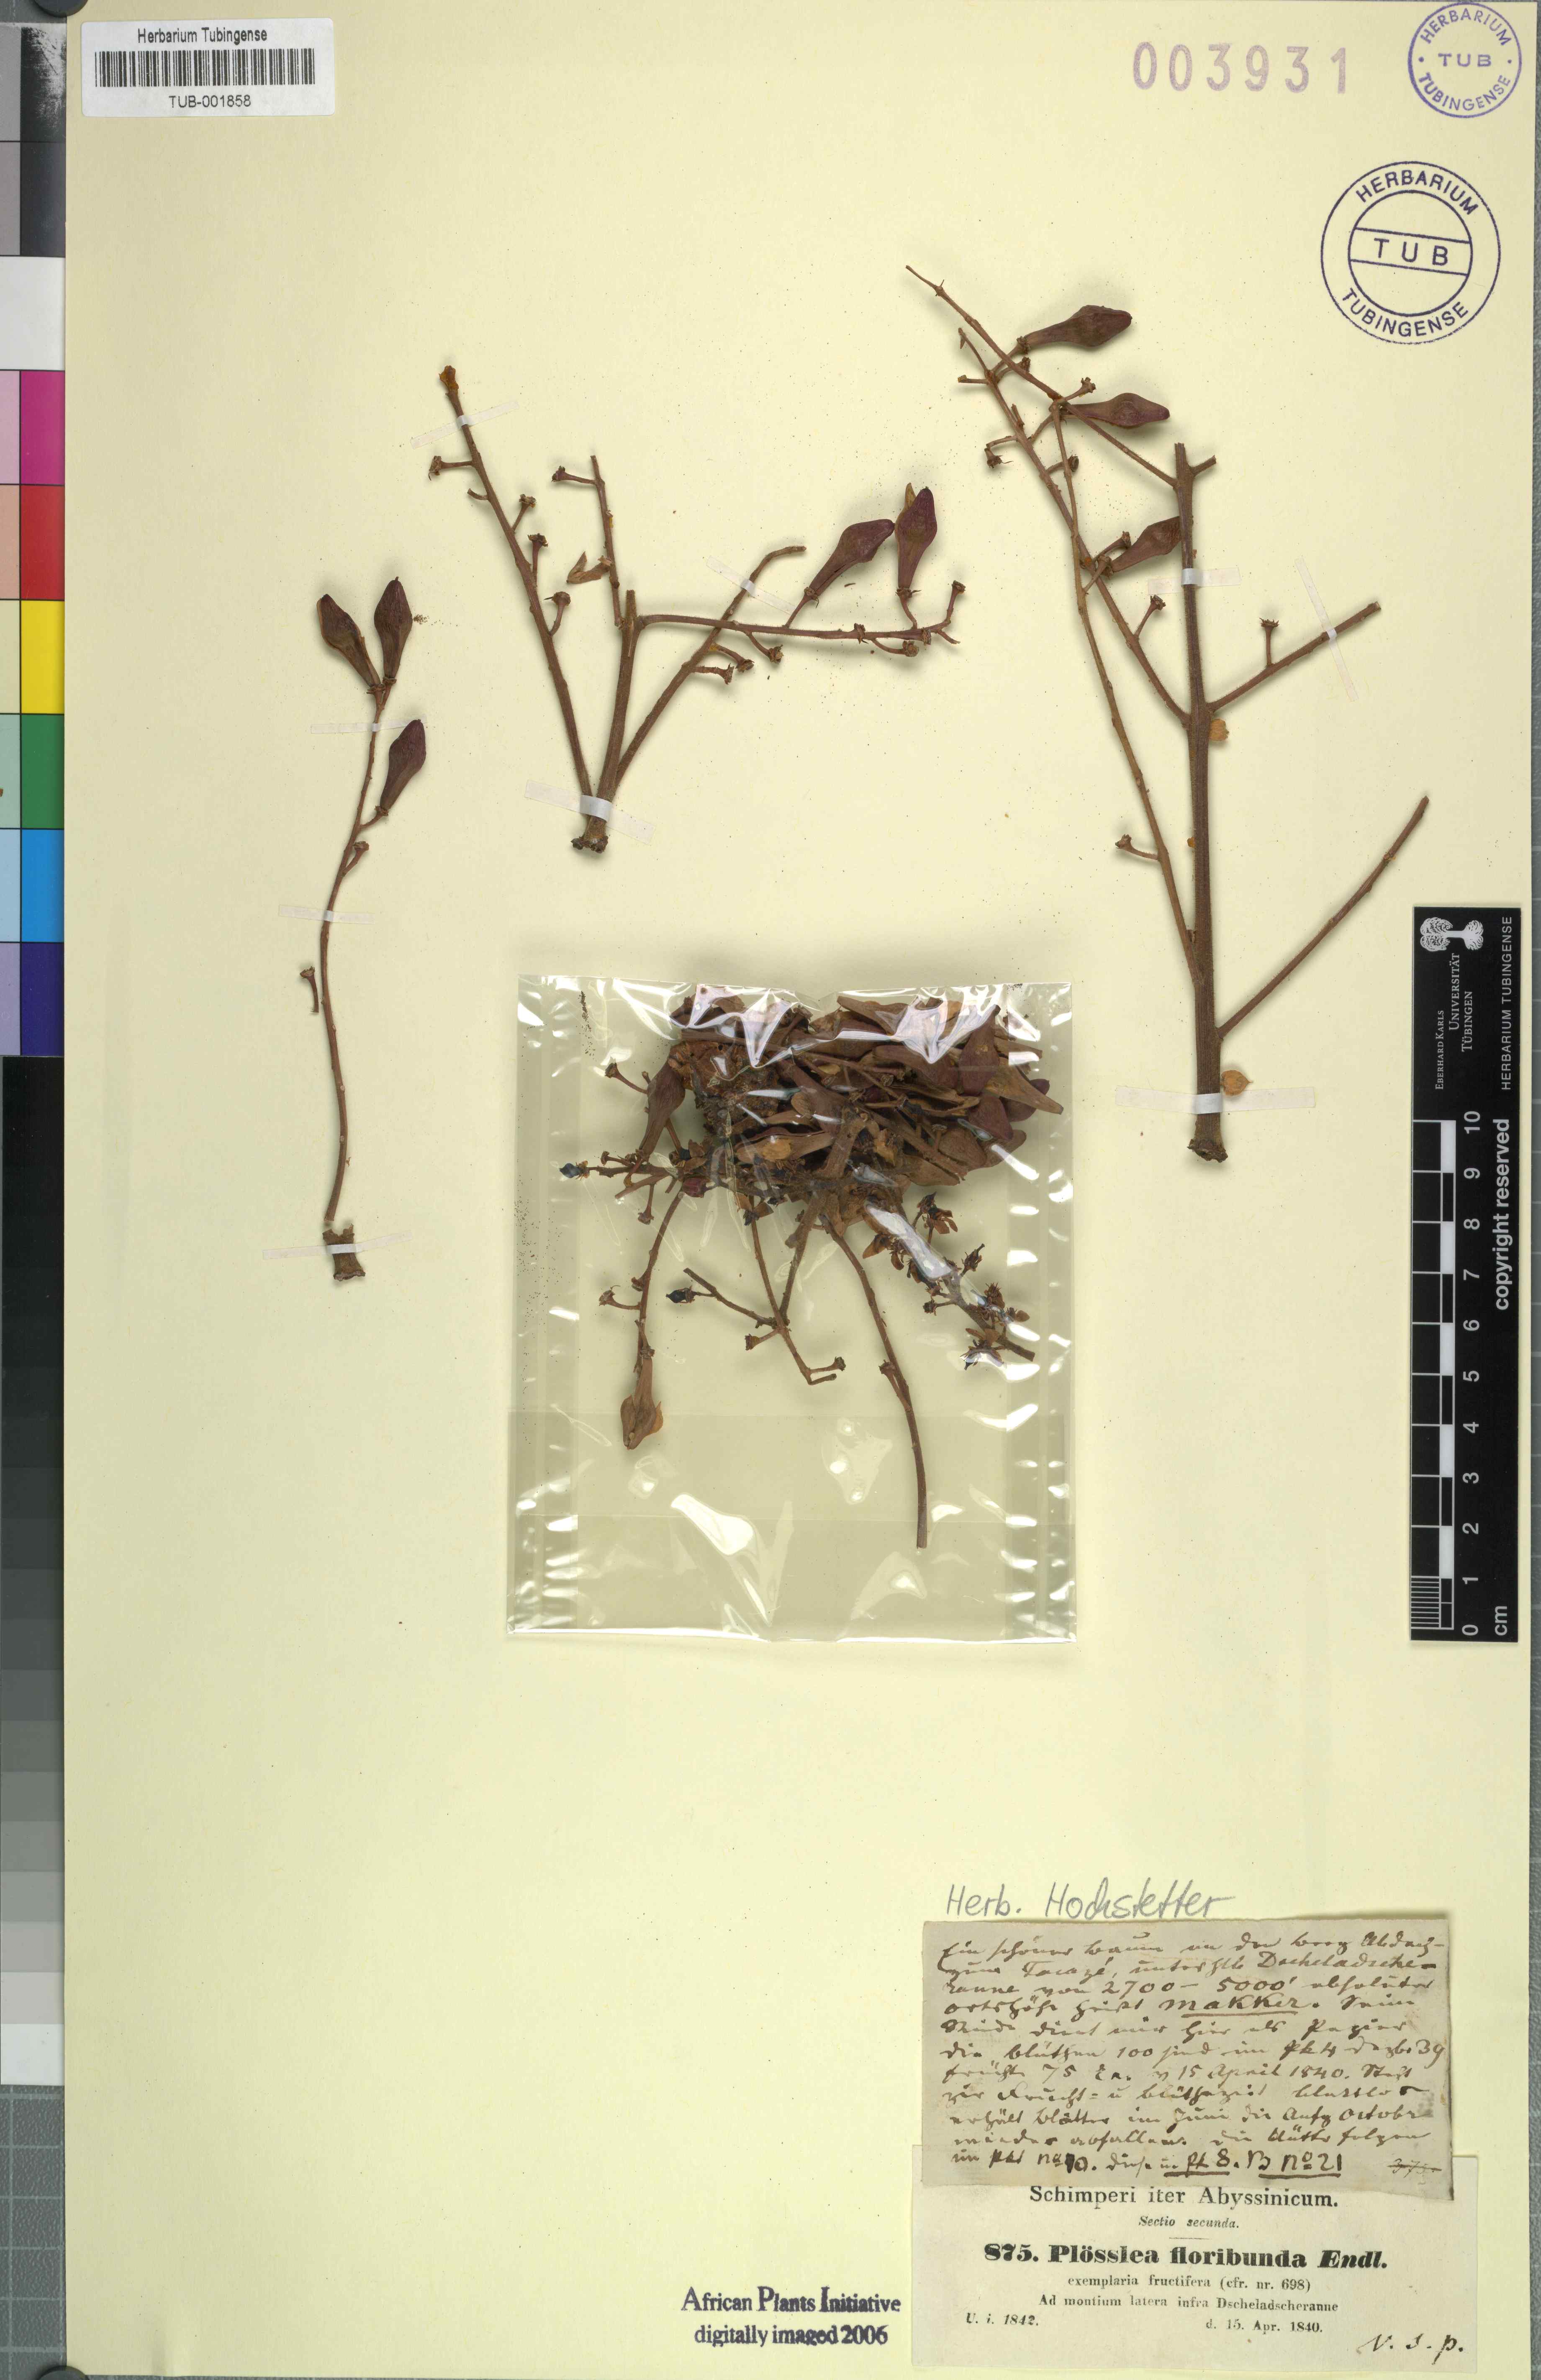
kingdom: Plantae
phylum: Tracheophyta
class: Magnoliopsida
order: Sapindales
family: Burseraceae
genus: Boswellia
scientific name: Boswellia papyrifera
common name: Sudanese frankincense
